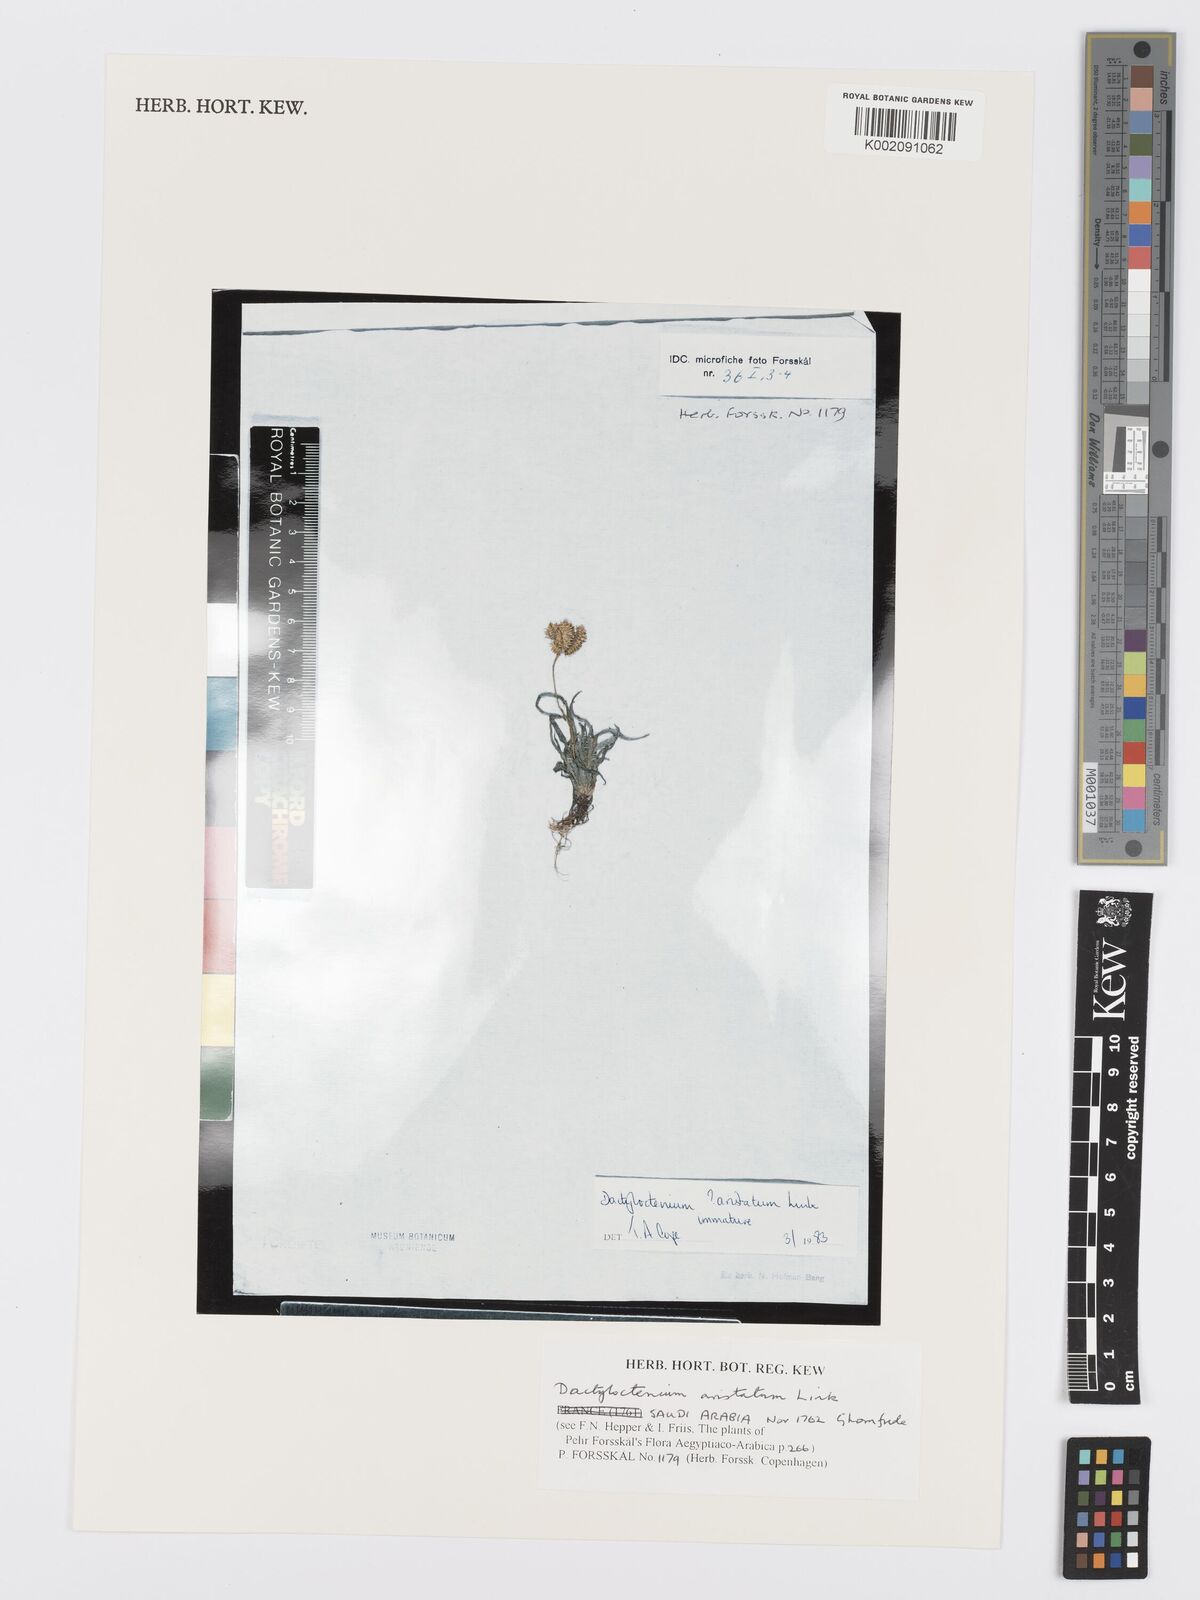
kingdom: Plantae
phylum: Tracheophyta
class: Liliopsida
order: Poales
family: Poaceae
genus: Dactyloctenium
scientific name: Dactyloctenium aristatum
